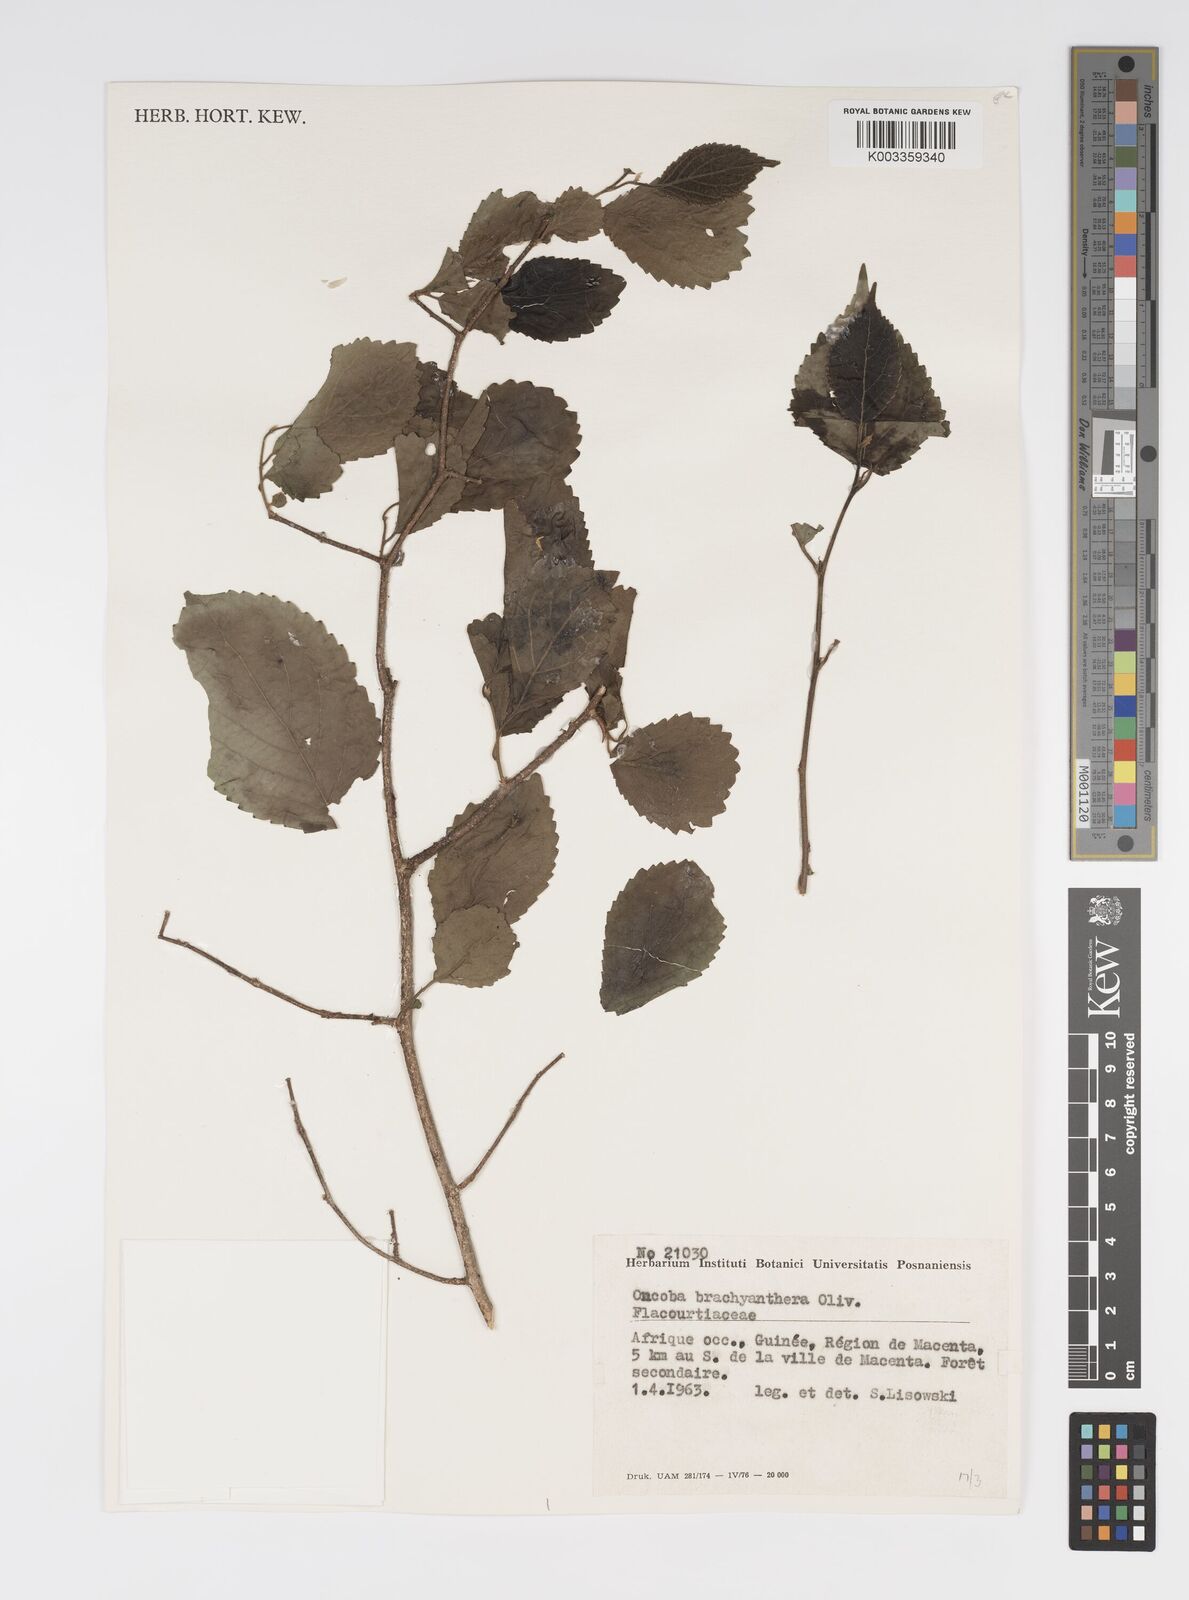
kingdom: Plantae
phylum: Tracheophyta
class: Magnoliopsida
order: Malpighiales
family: Salicaceae
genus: Oncoba
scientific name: Oncoba brachyanthera
